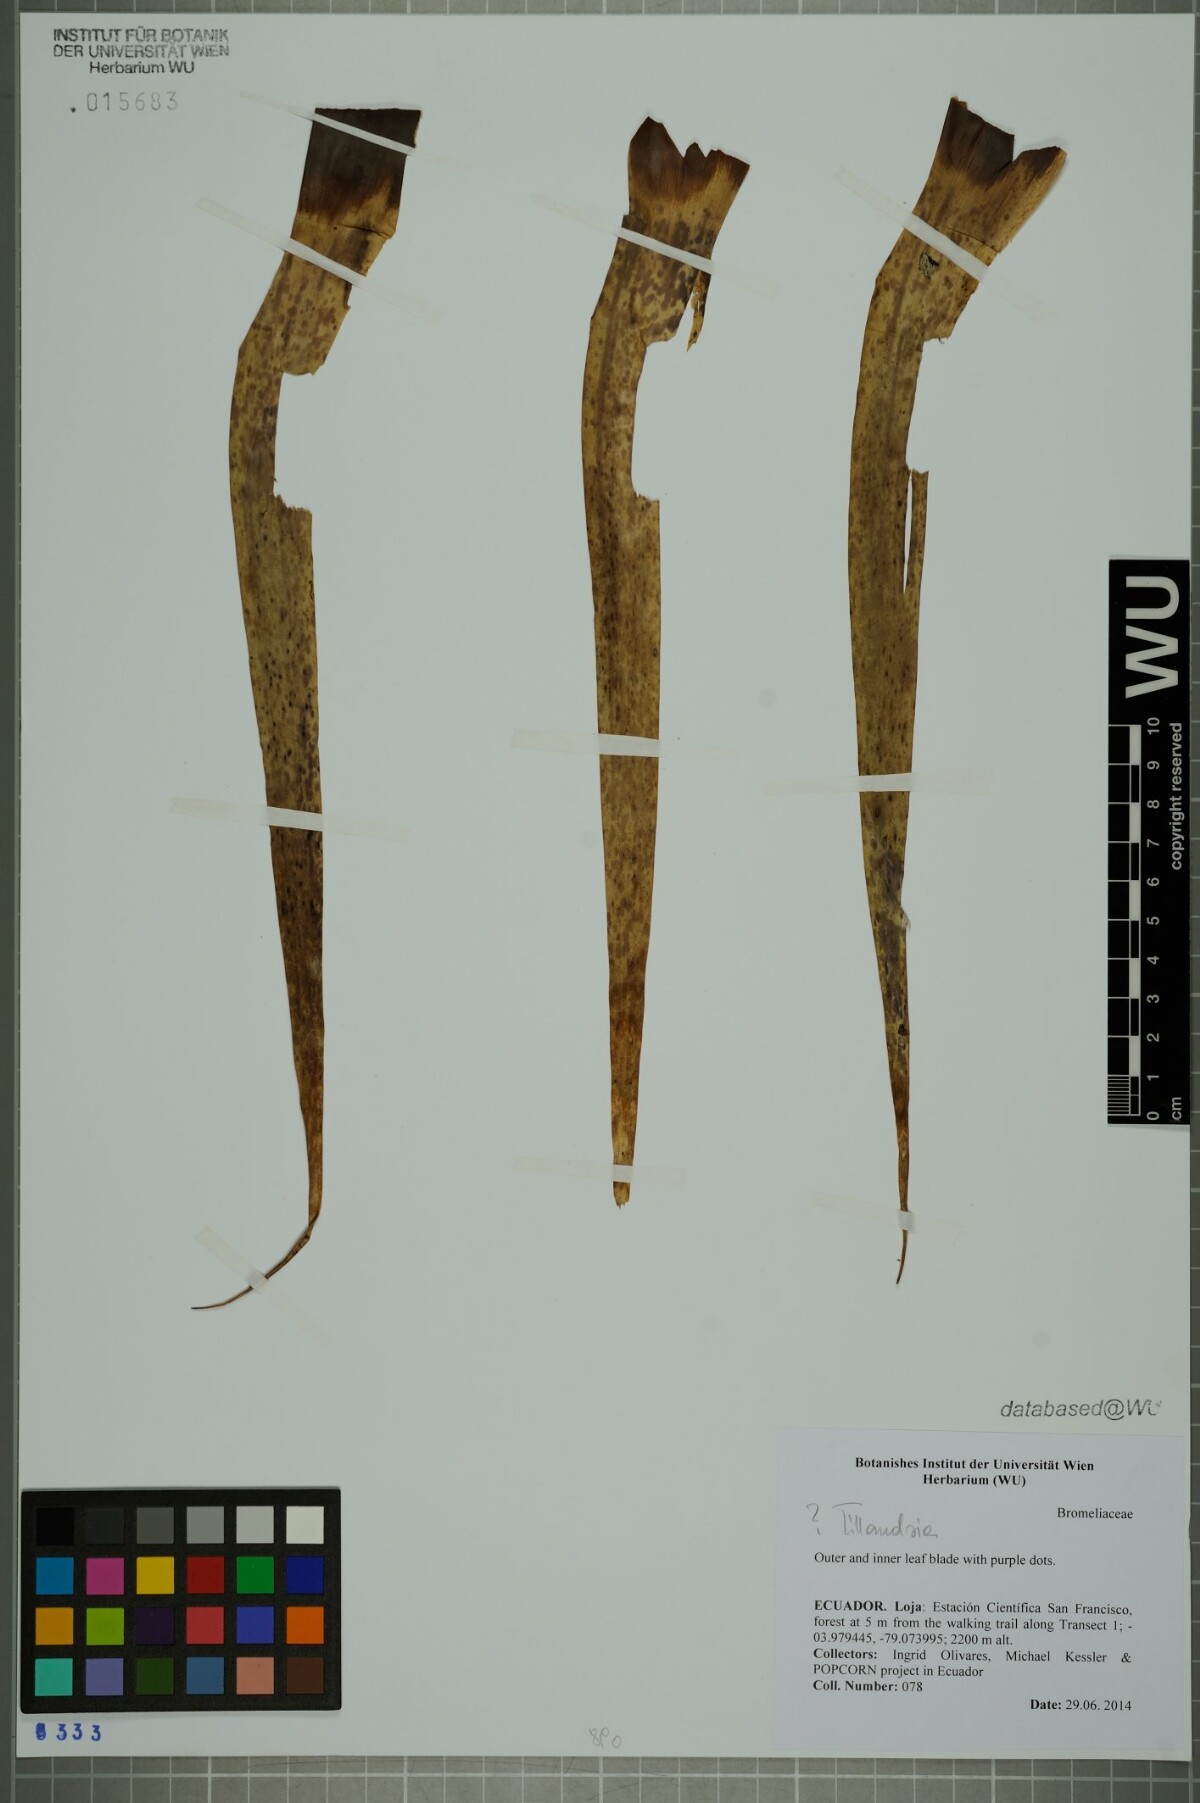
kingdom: Plantae
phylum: Tracheophyta
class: Liliopsida
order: Poales
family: Bromeliaceae
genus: Tillandsia
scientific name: Tillandsia
